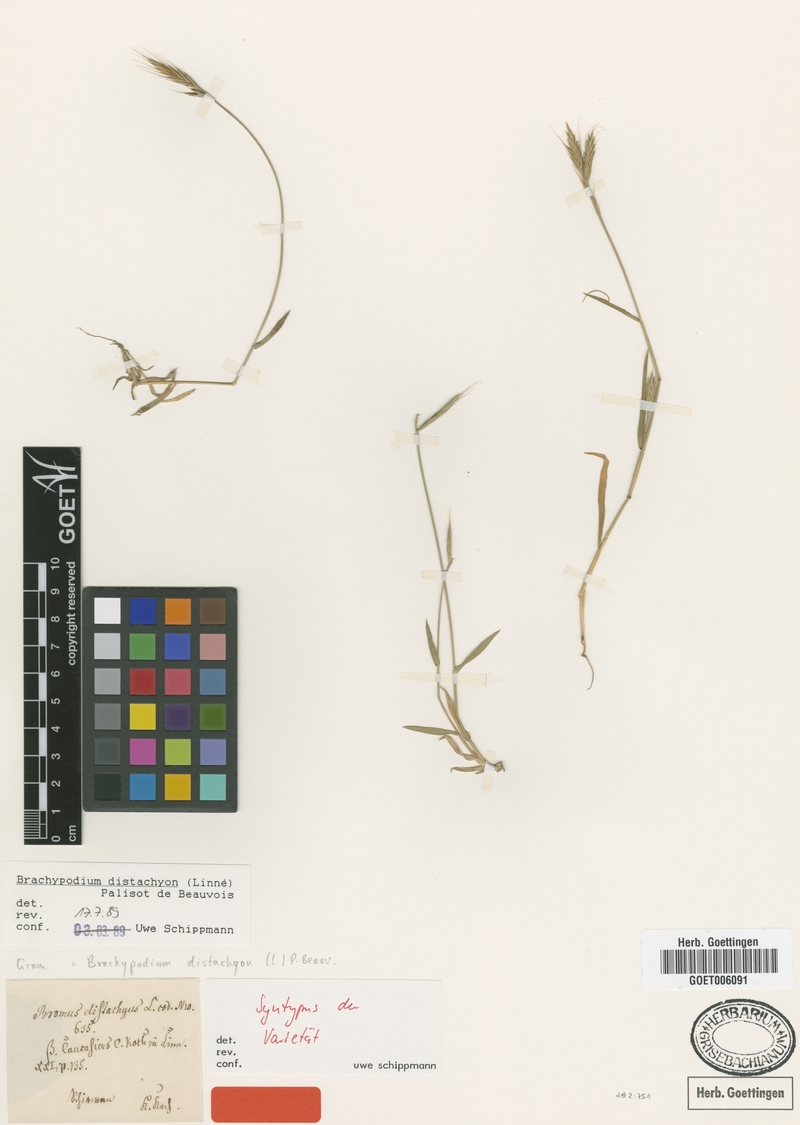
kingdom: Plantae
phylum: Tracheophyta
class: Liliopsida
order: Poales
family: Poaceae
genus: Brachypodium
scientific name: Brachypodium distachyon
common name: Stiff brome
